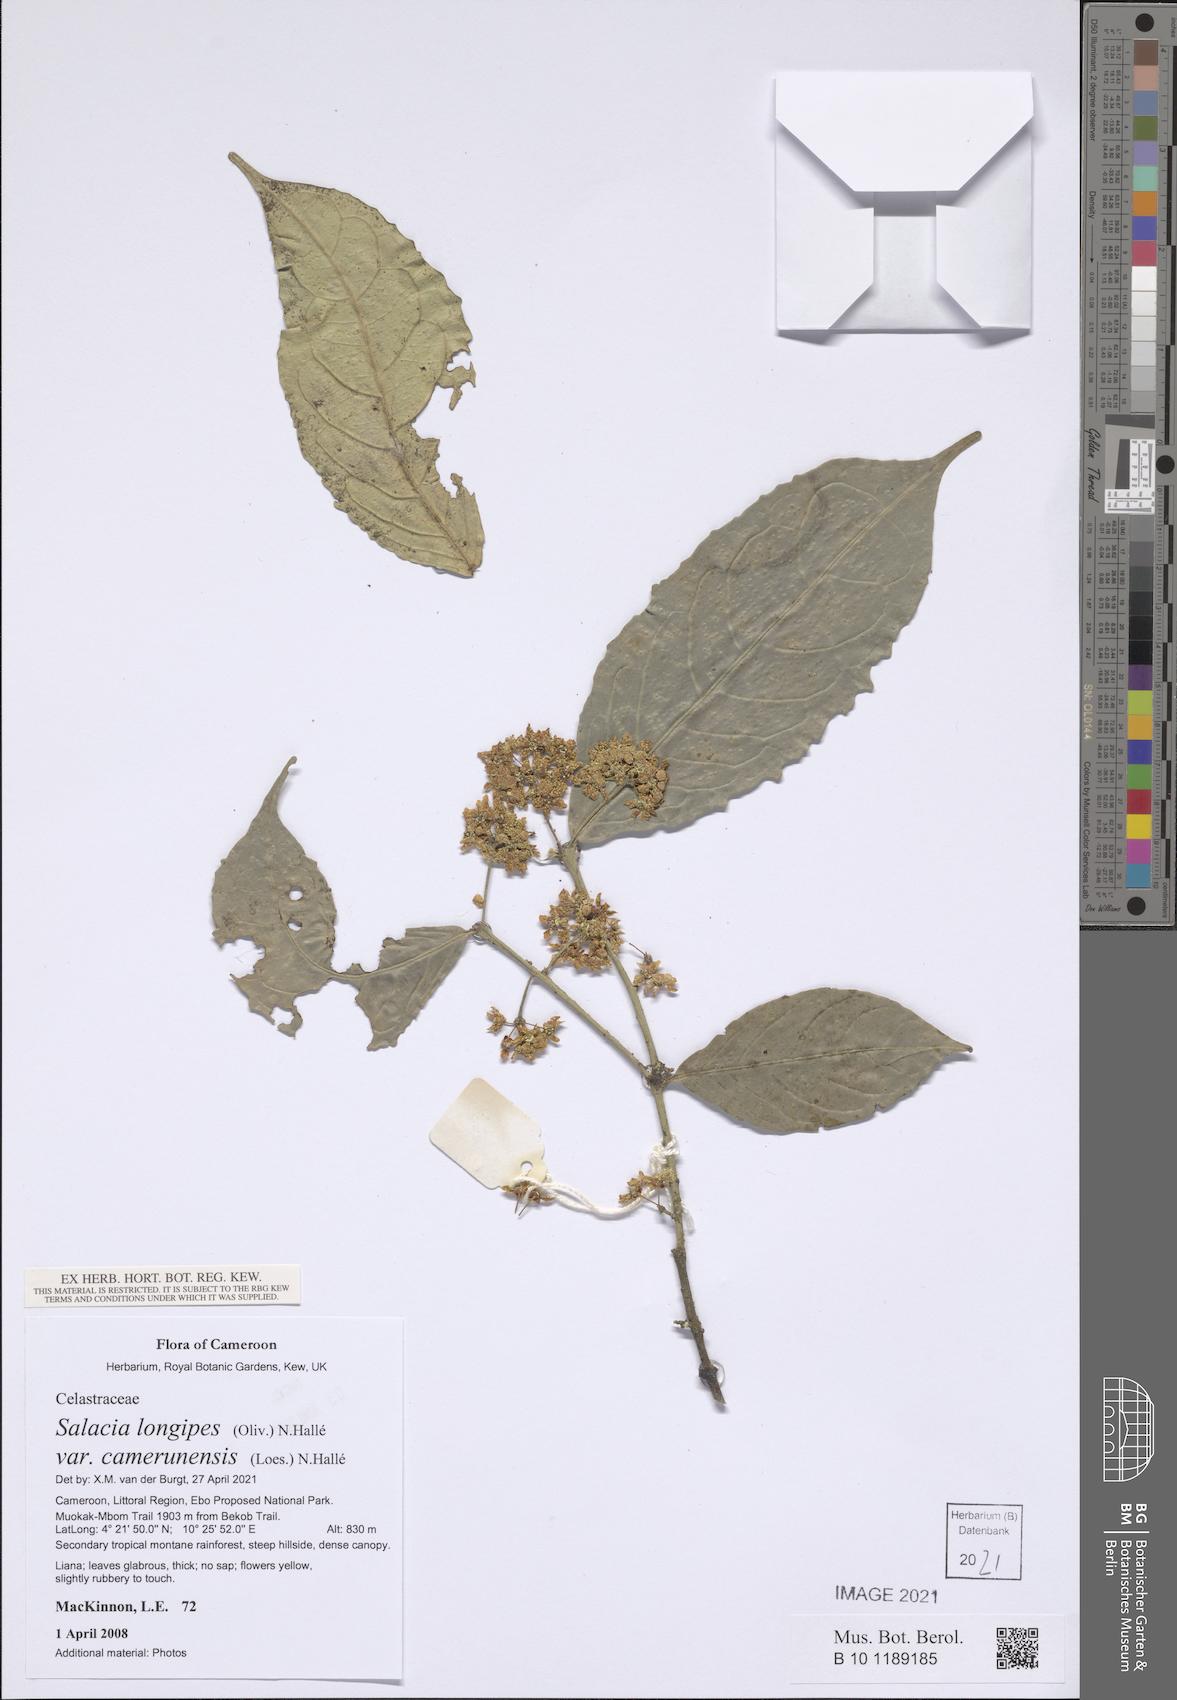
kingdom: Plantae
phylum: Tracheophyta
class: Magnoliopsida
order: Celastrales
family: Celastraceae
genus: Salacia
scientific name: Salacia longipes
